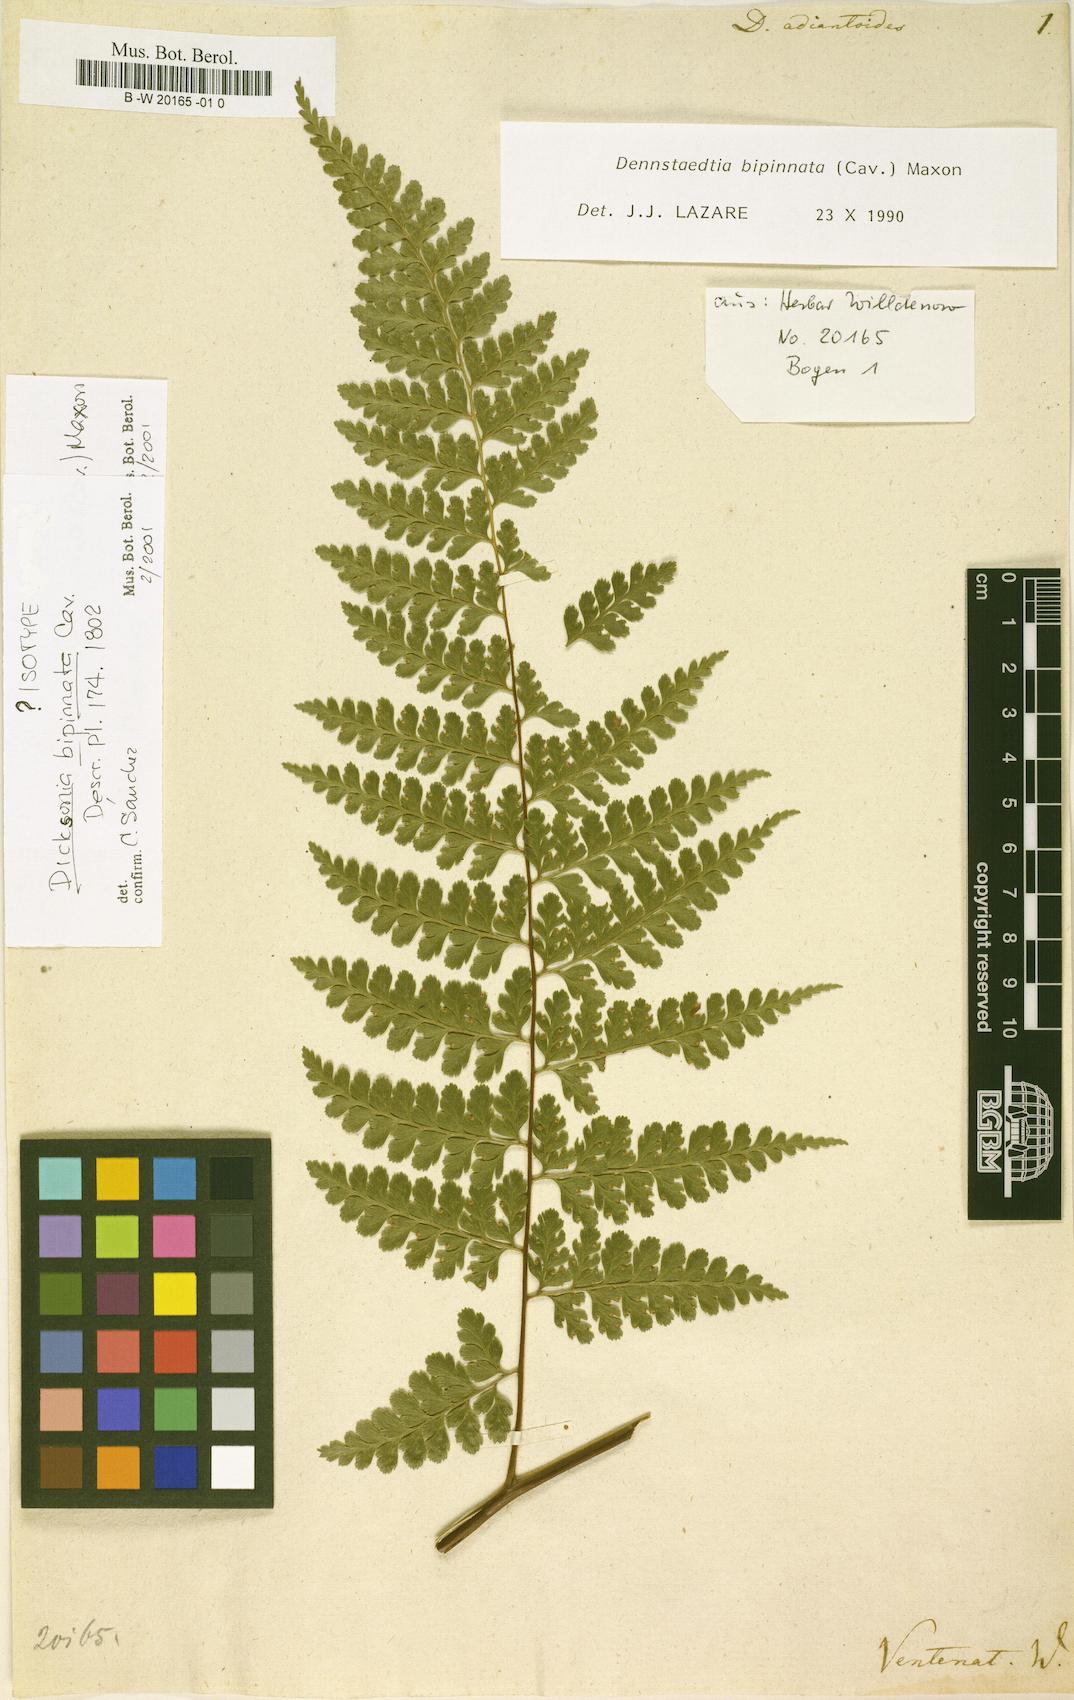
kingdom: Plantae
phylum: Tracheophyta
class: Polypodiopsida
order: Polypodiales
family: Dennstaedtiaceae
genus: Mucura
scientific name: Mucura bipinnata
